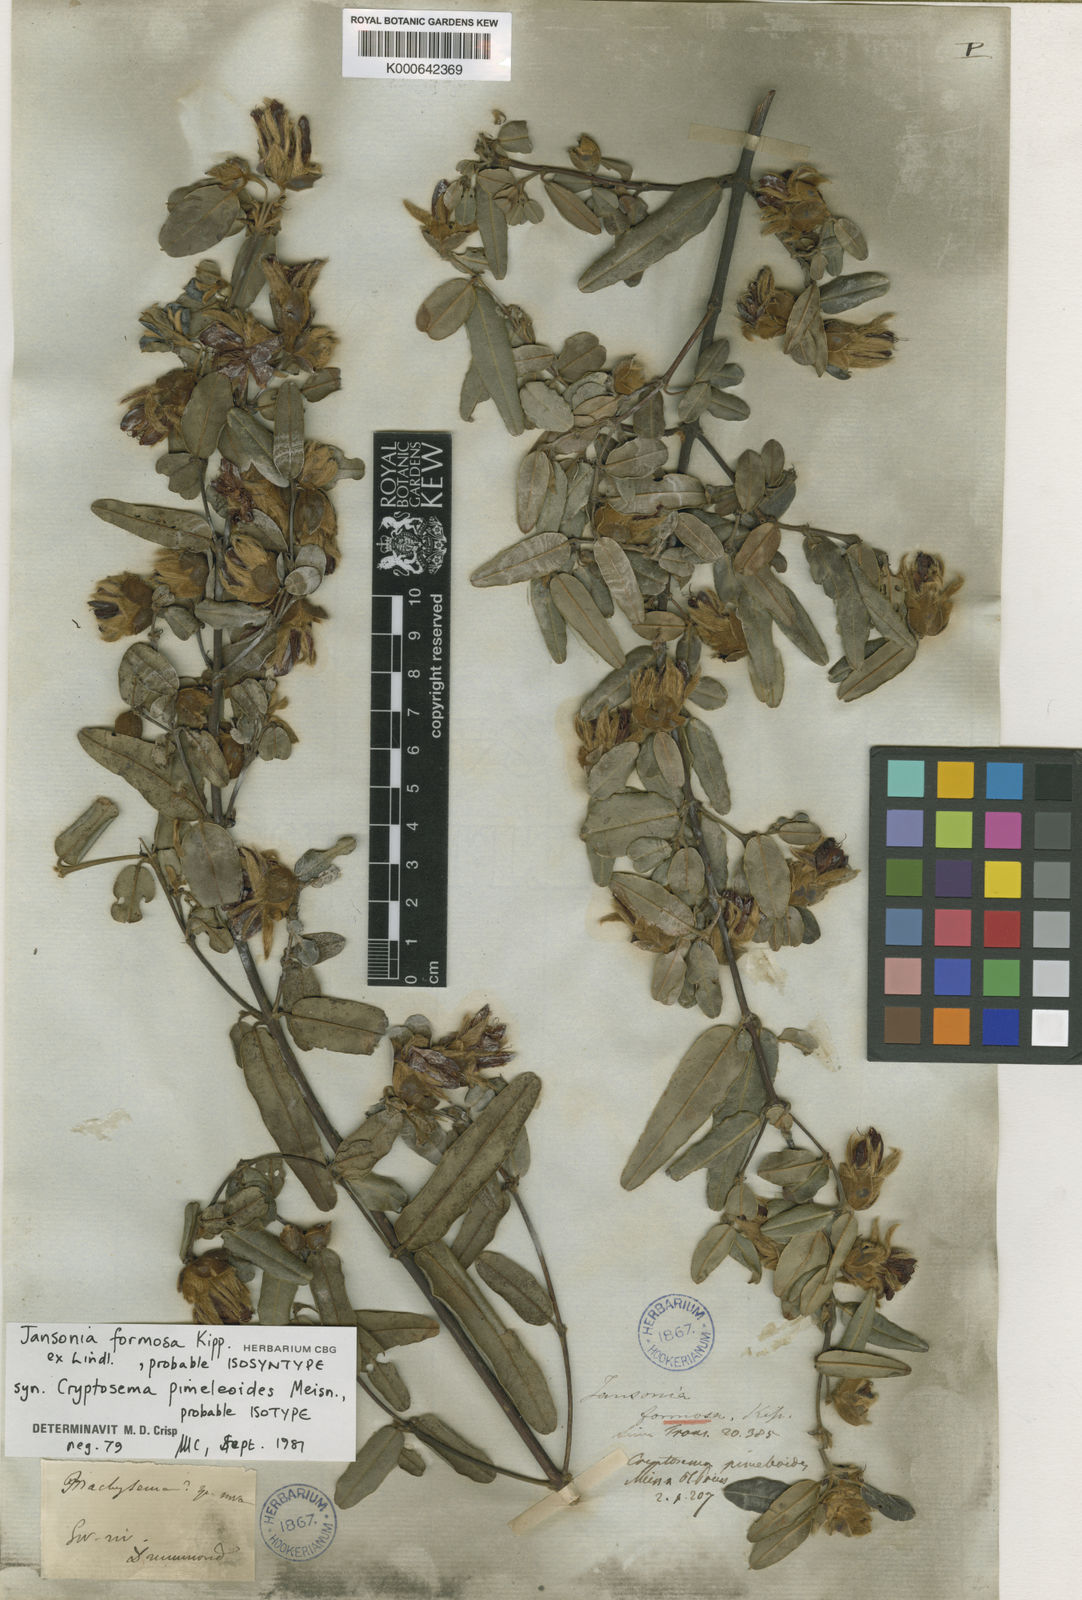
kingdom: Plantae
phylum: Tracheophyta
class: Magnoliopsida
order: Fabales
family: Fabaceae
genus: Gastrolobium
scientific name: Gastrolobium formosum
